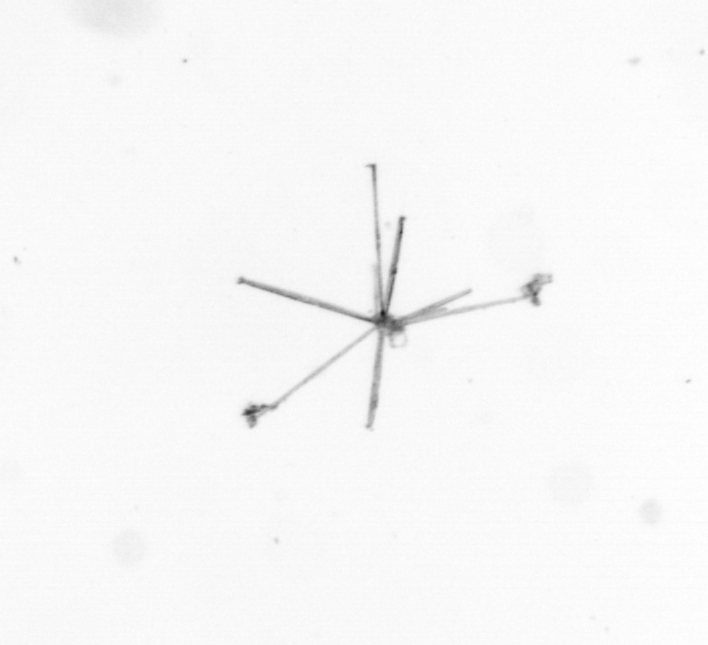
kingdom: Chromista
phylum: Ochrophyta
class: Bacillariophyceae
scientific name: Bacillariophyceae
